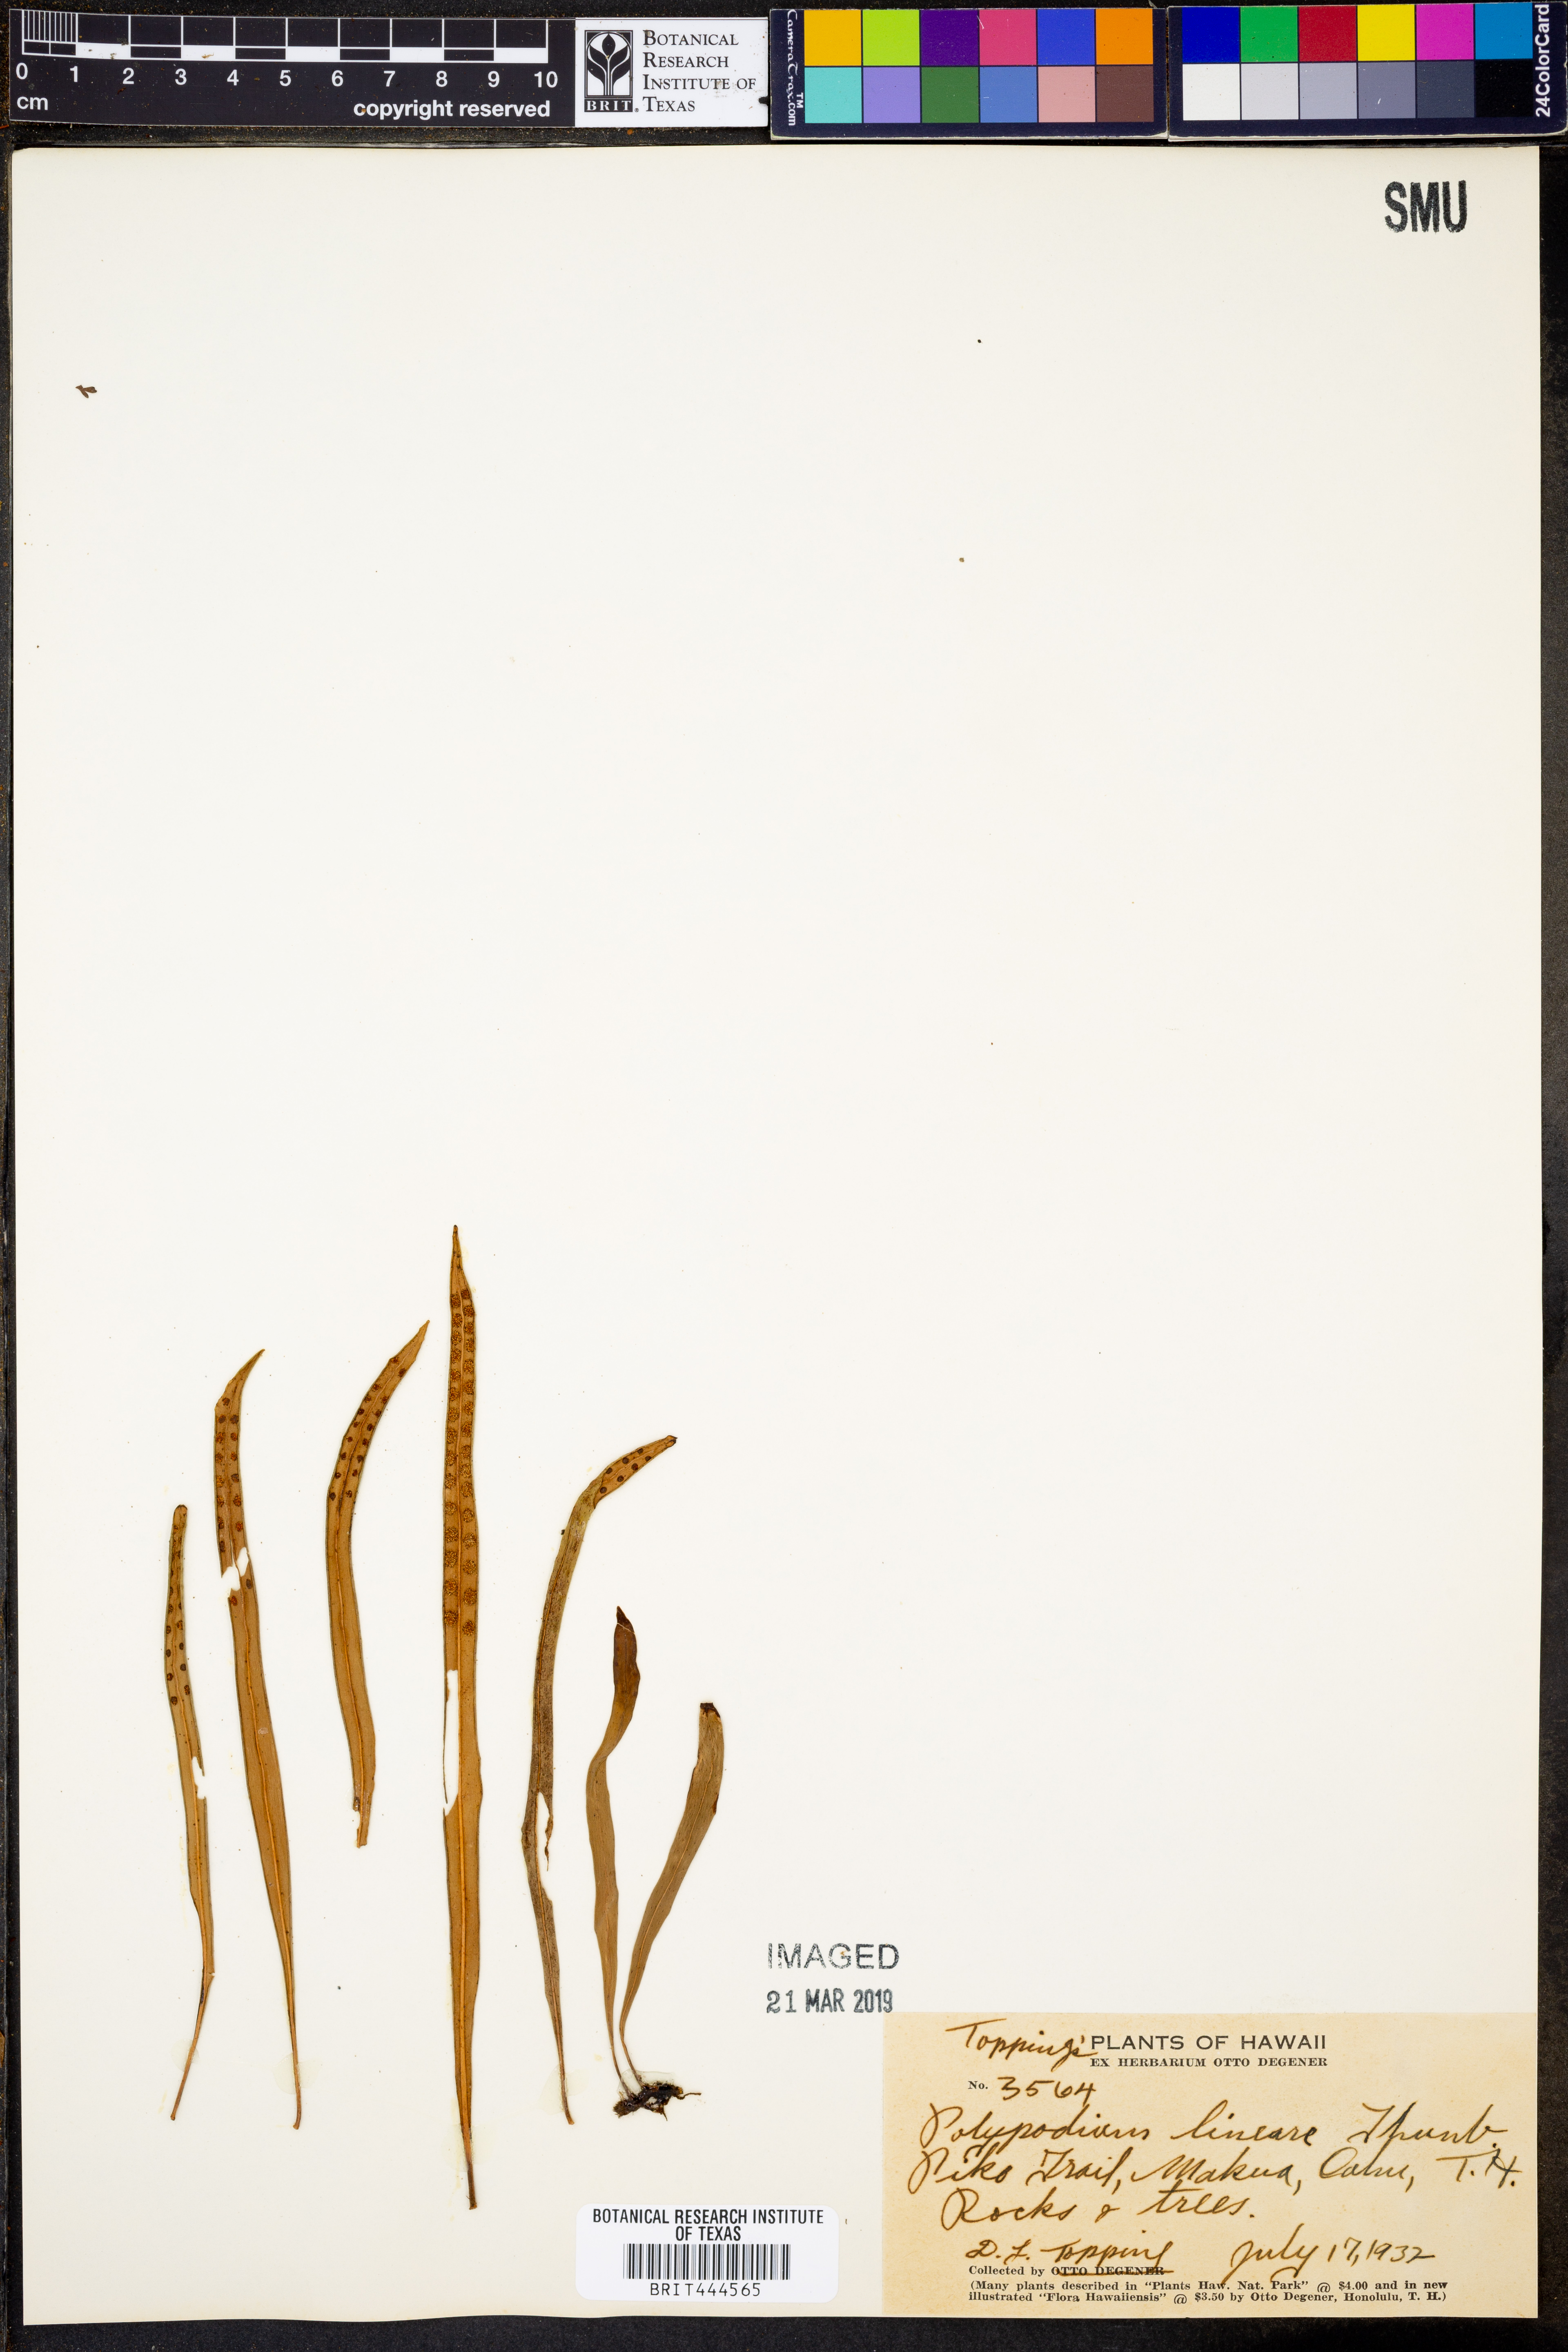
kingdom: Plantae
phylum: Tracheophyta
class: Polypodiopsida
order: Polypodiales
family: Polypodiaceae
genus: Lepisorus
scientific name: Lepisorus thunbergianus
